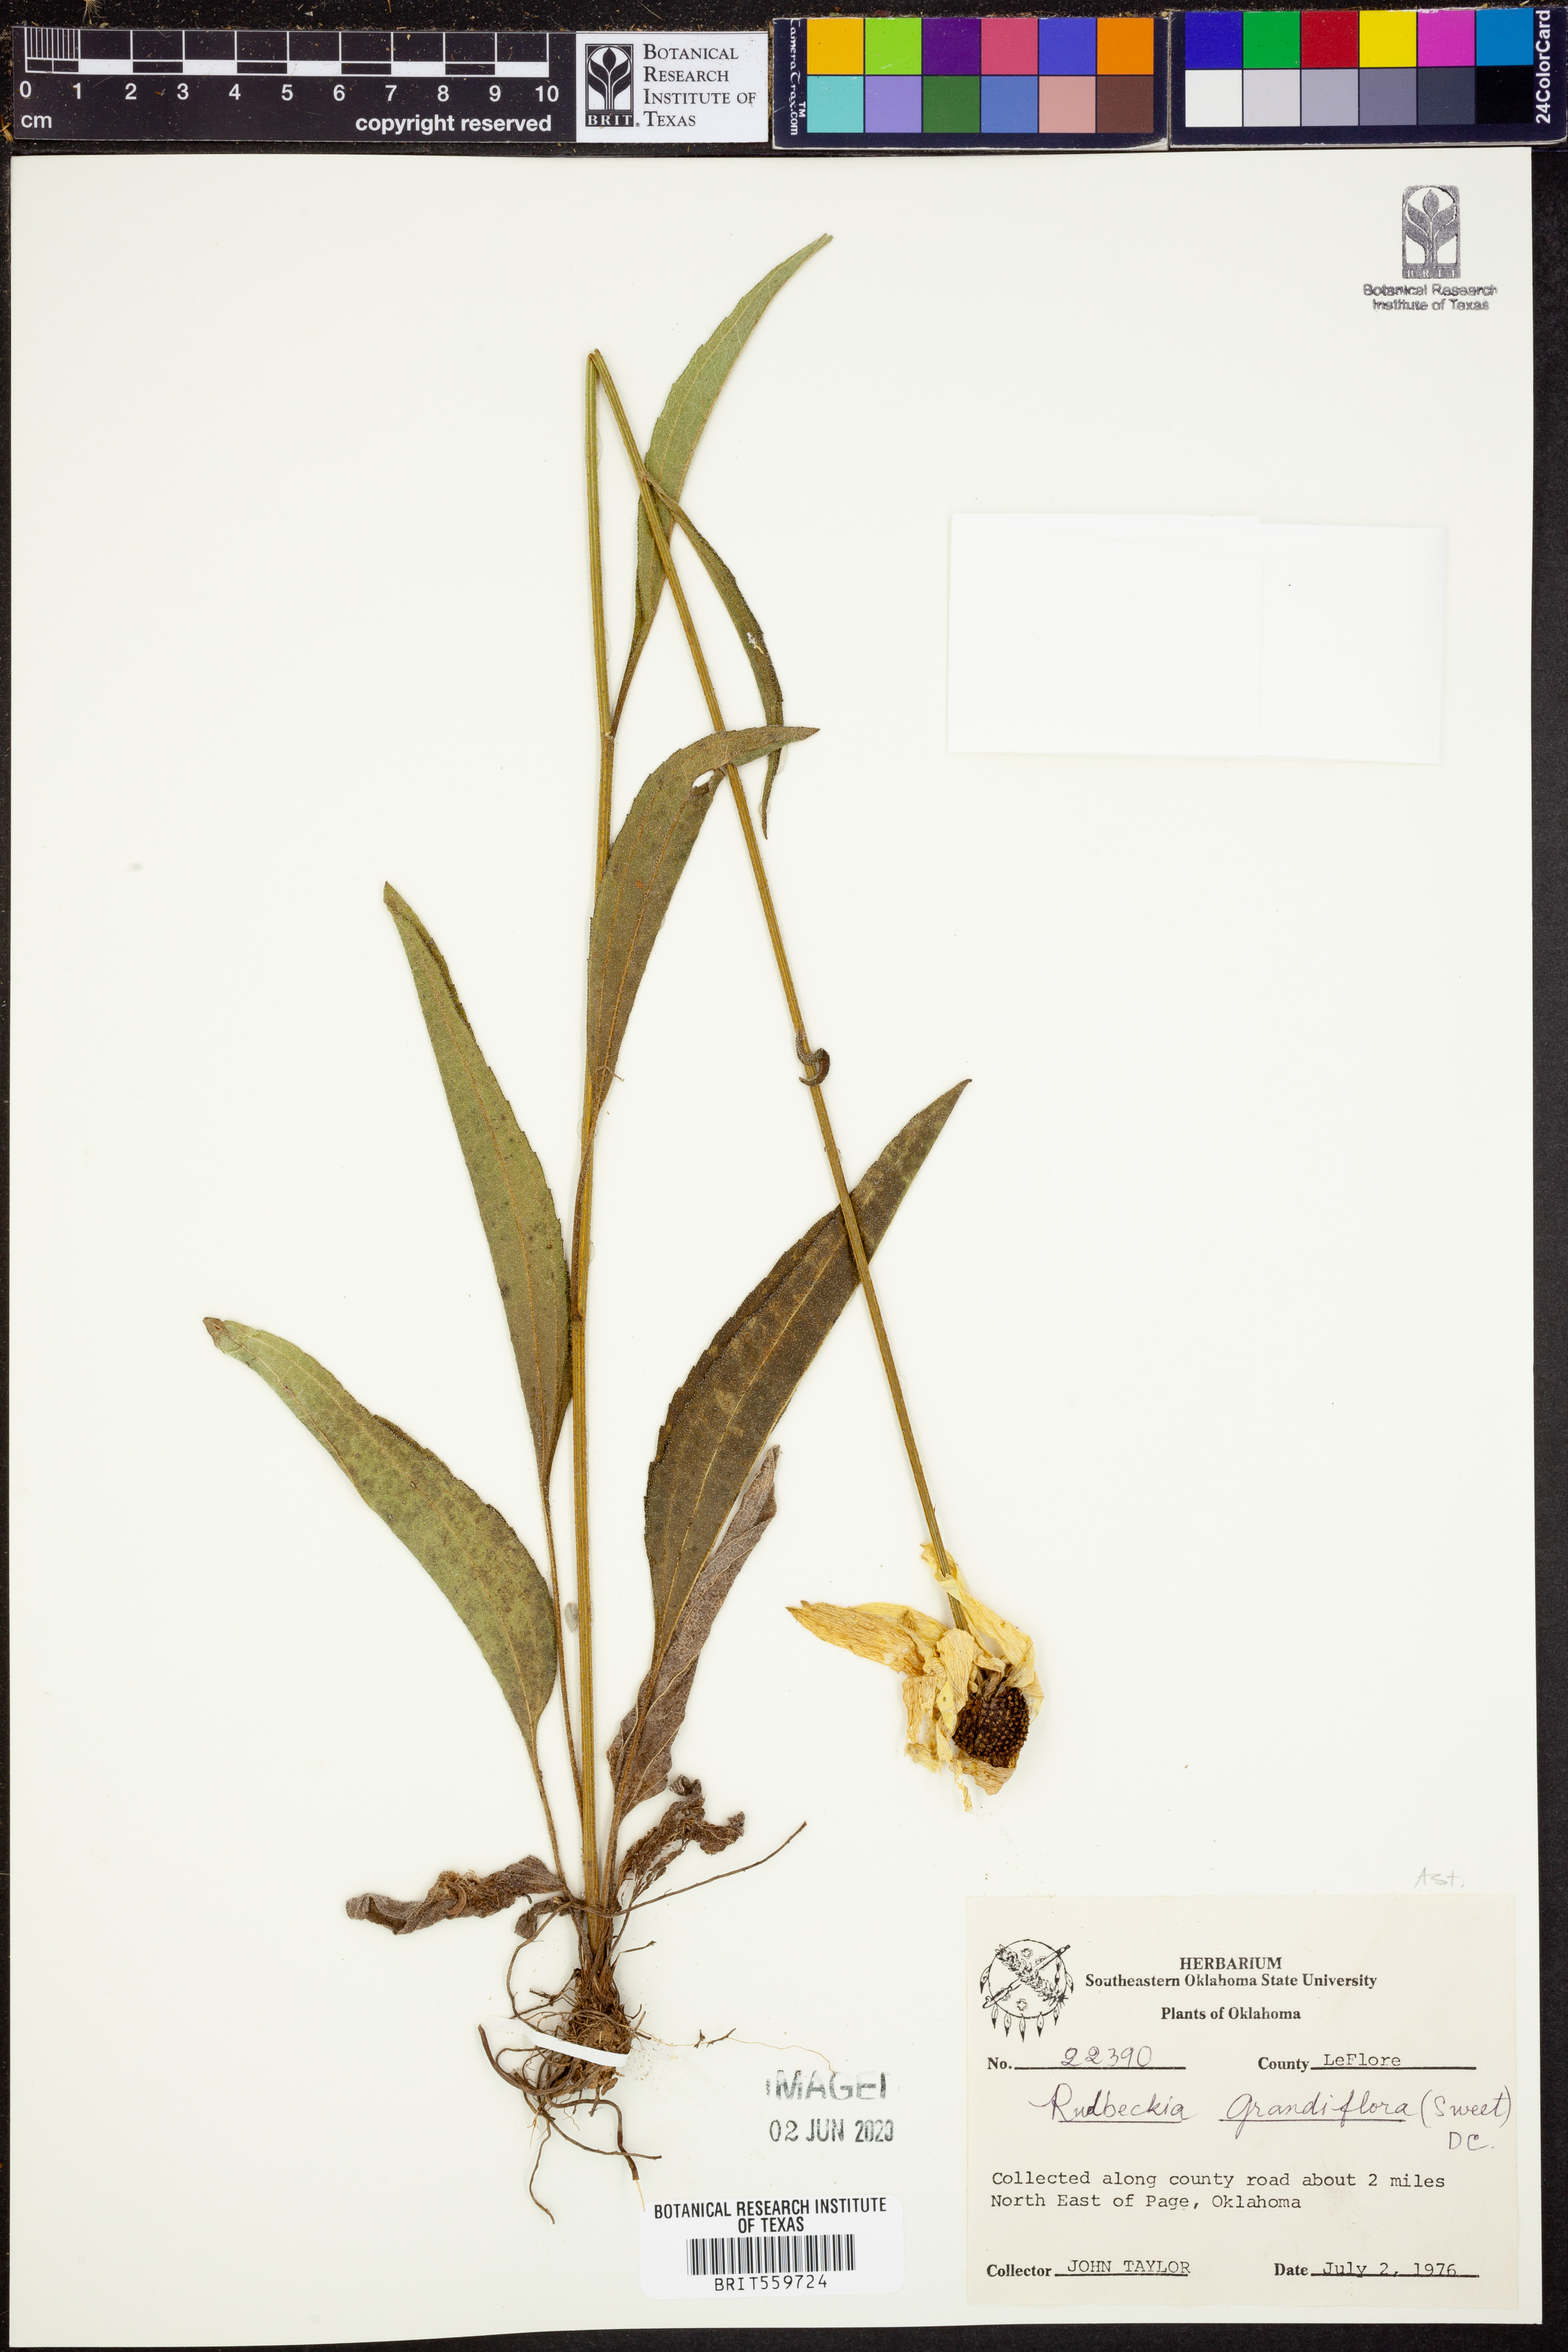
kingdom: Plantae
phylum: Tracheophyta
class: Magnoliopsida
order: Asterales
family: Asteraceae
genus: Rudbeckia
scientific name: Rudbeckia grandiflora
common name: Large-flowered coneflower
